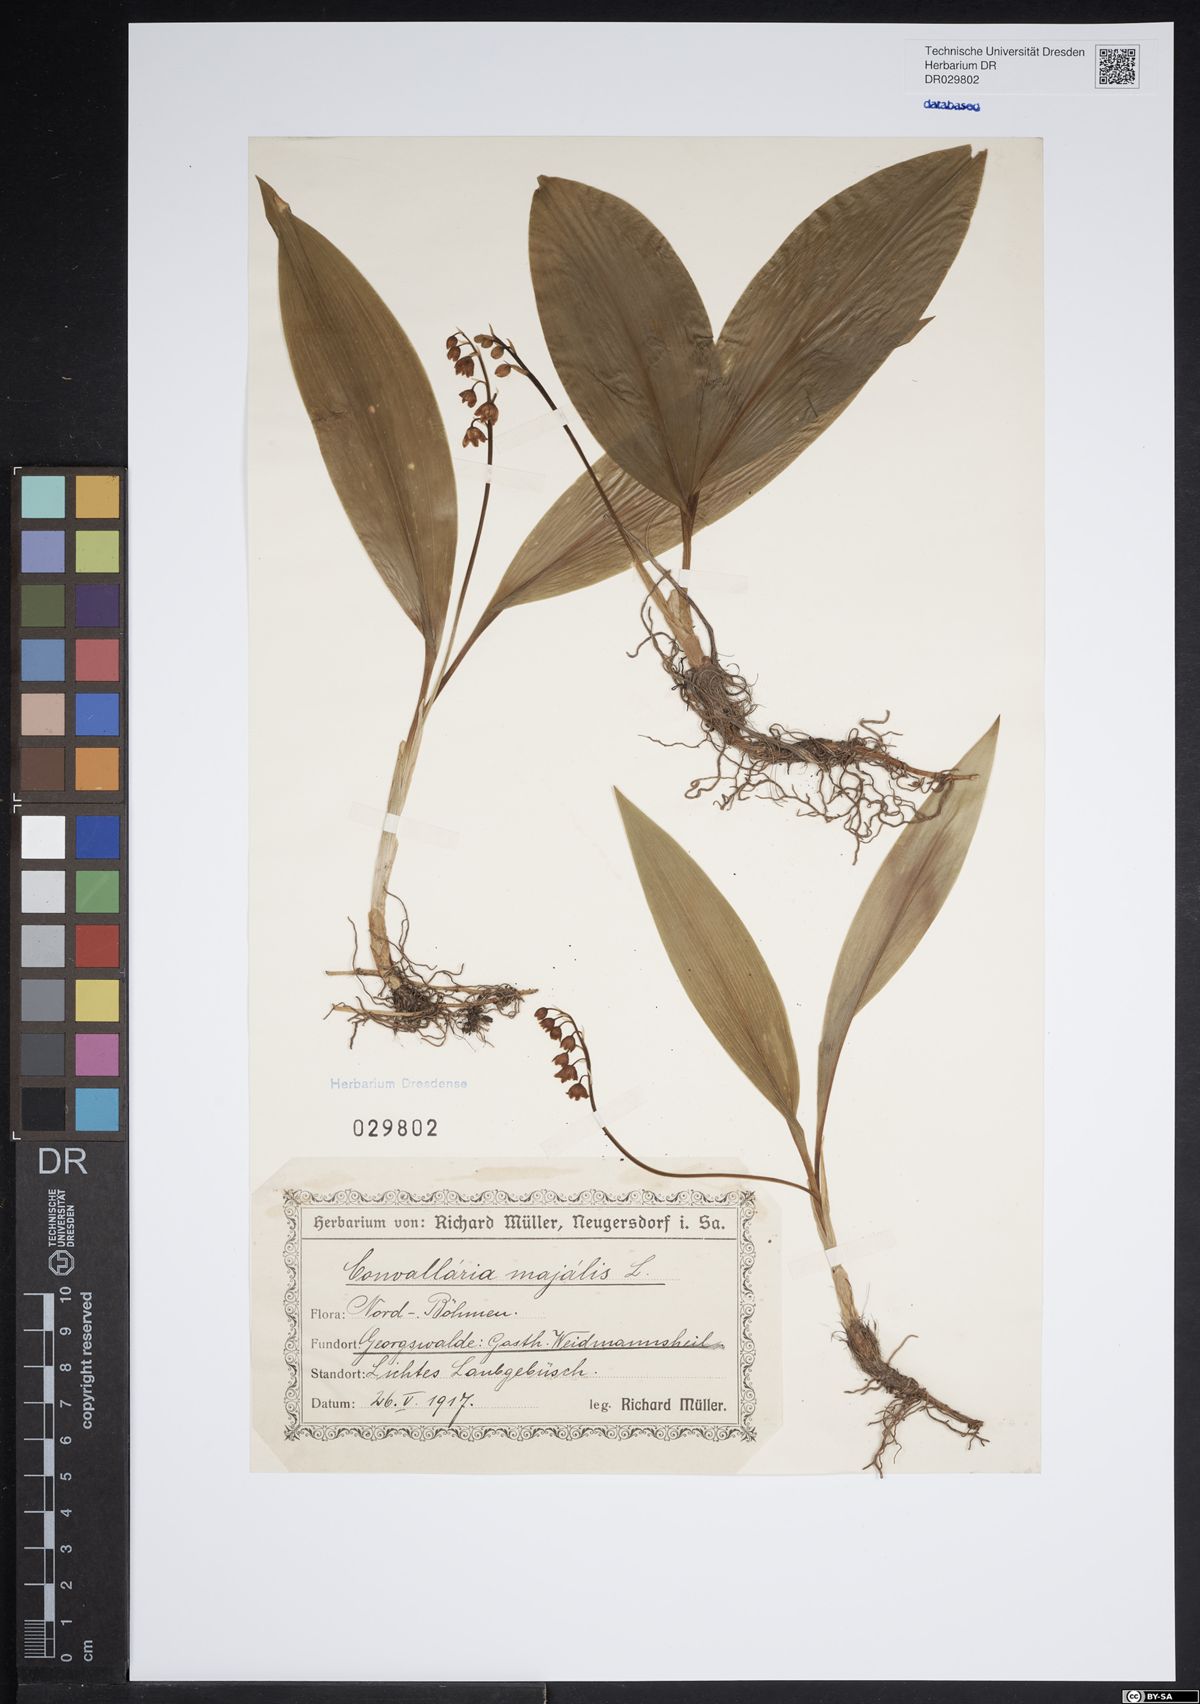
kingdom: Plantae
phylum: Tracheophyta
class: Liliopsida
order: Asparagales
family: Asparagaceae
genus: Convallaria
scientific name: Convallaria majalis
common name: Lily-of-the-valley
